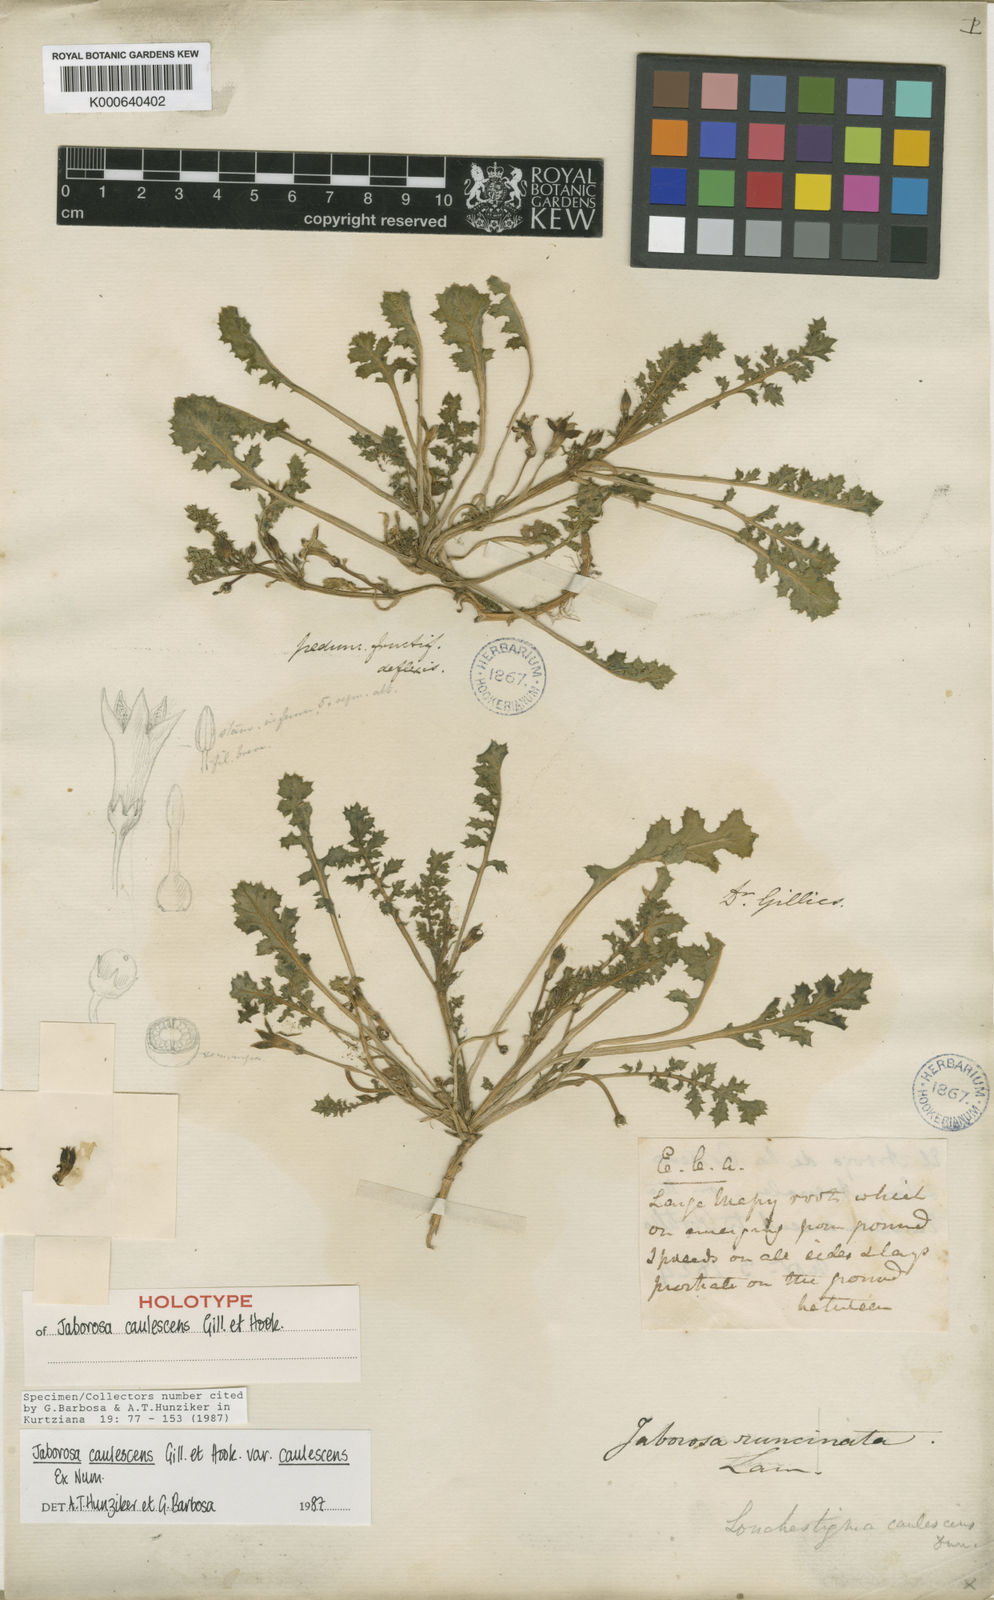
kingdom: Plantae
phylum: Tracheophyta
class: Magnoliopsida
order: Solanales
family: Solanaceae
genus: Jaborosa
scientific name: Jaborosa caulescens
